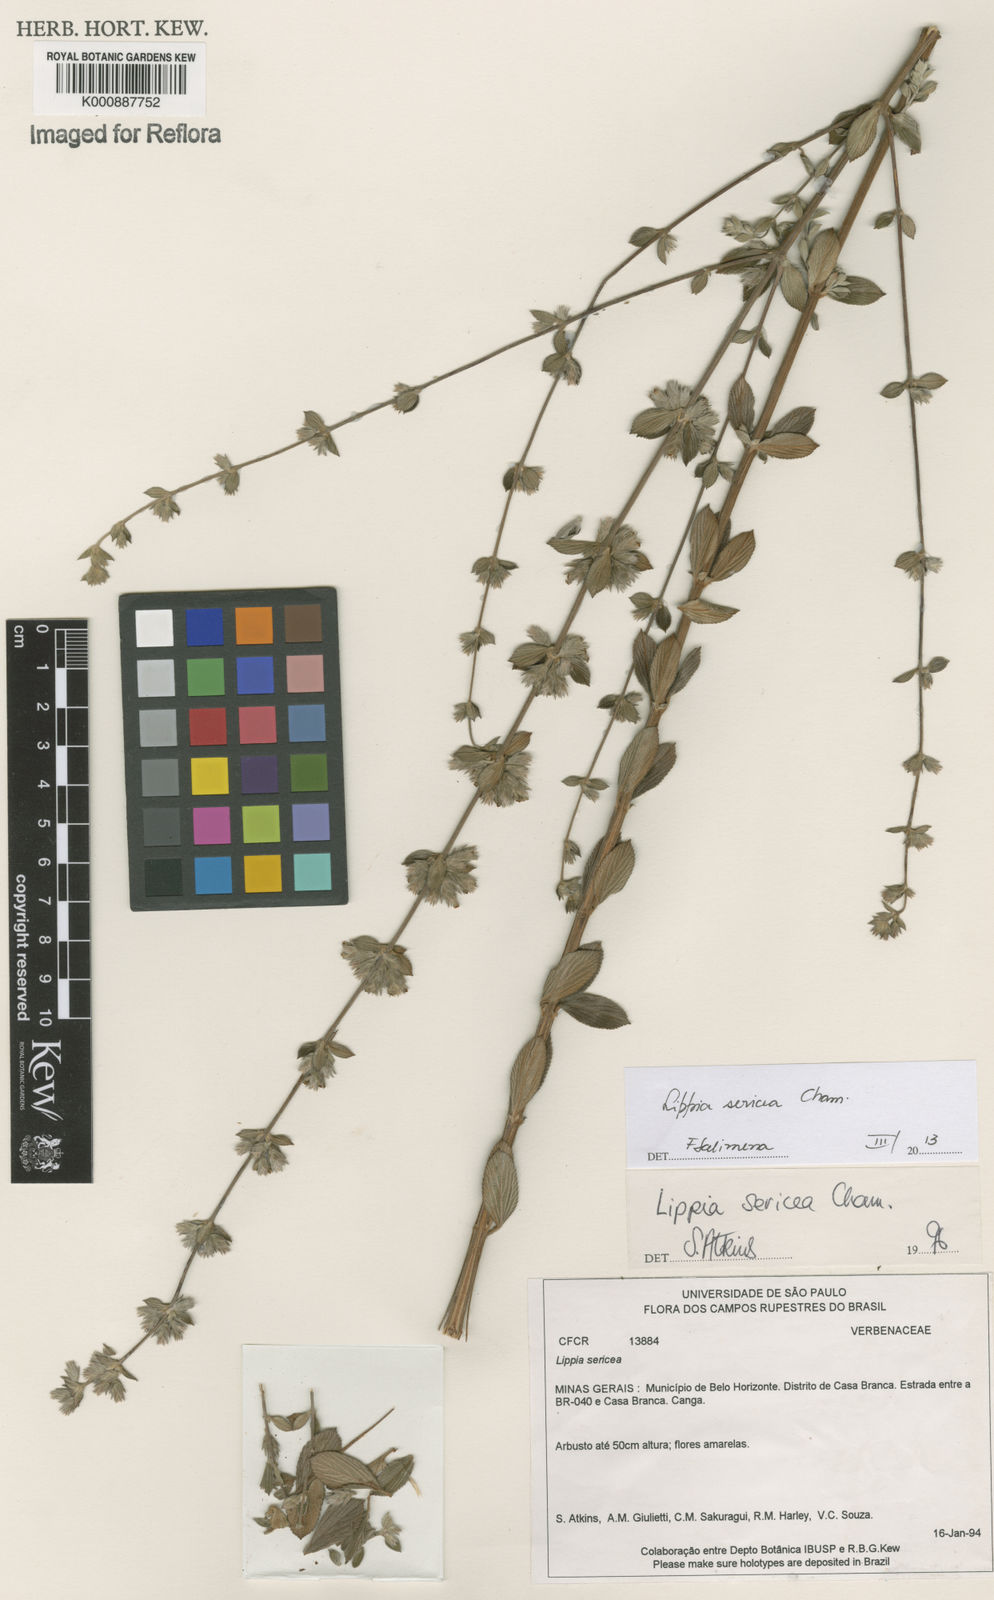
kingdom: Plantae
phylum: Tracheophyta
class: Magnoliopsida
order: Lamiales
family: Verbenaceae
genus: Lippia
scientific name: Lippia sericea
